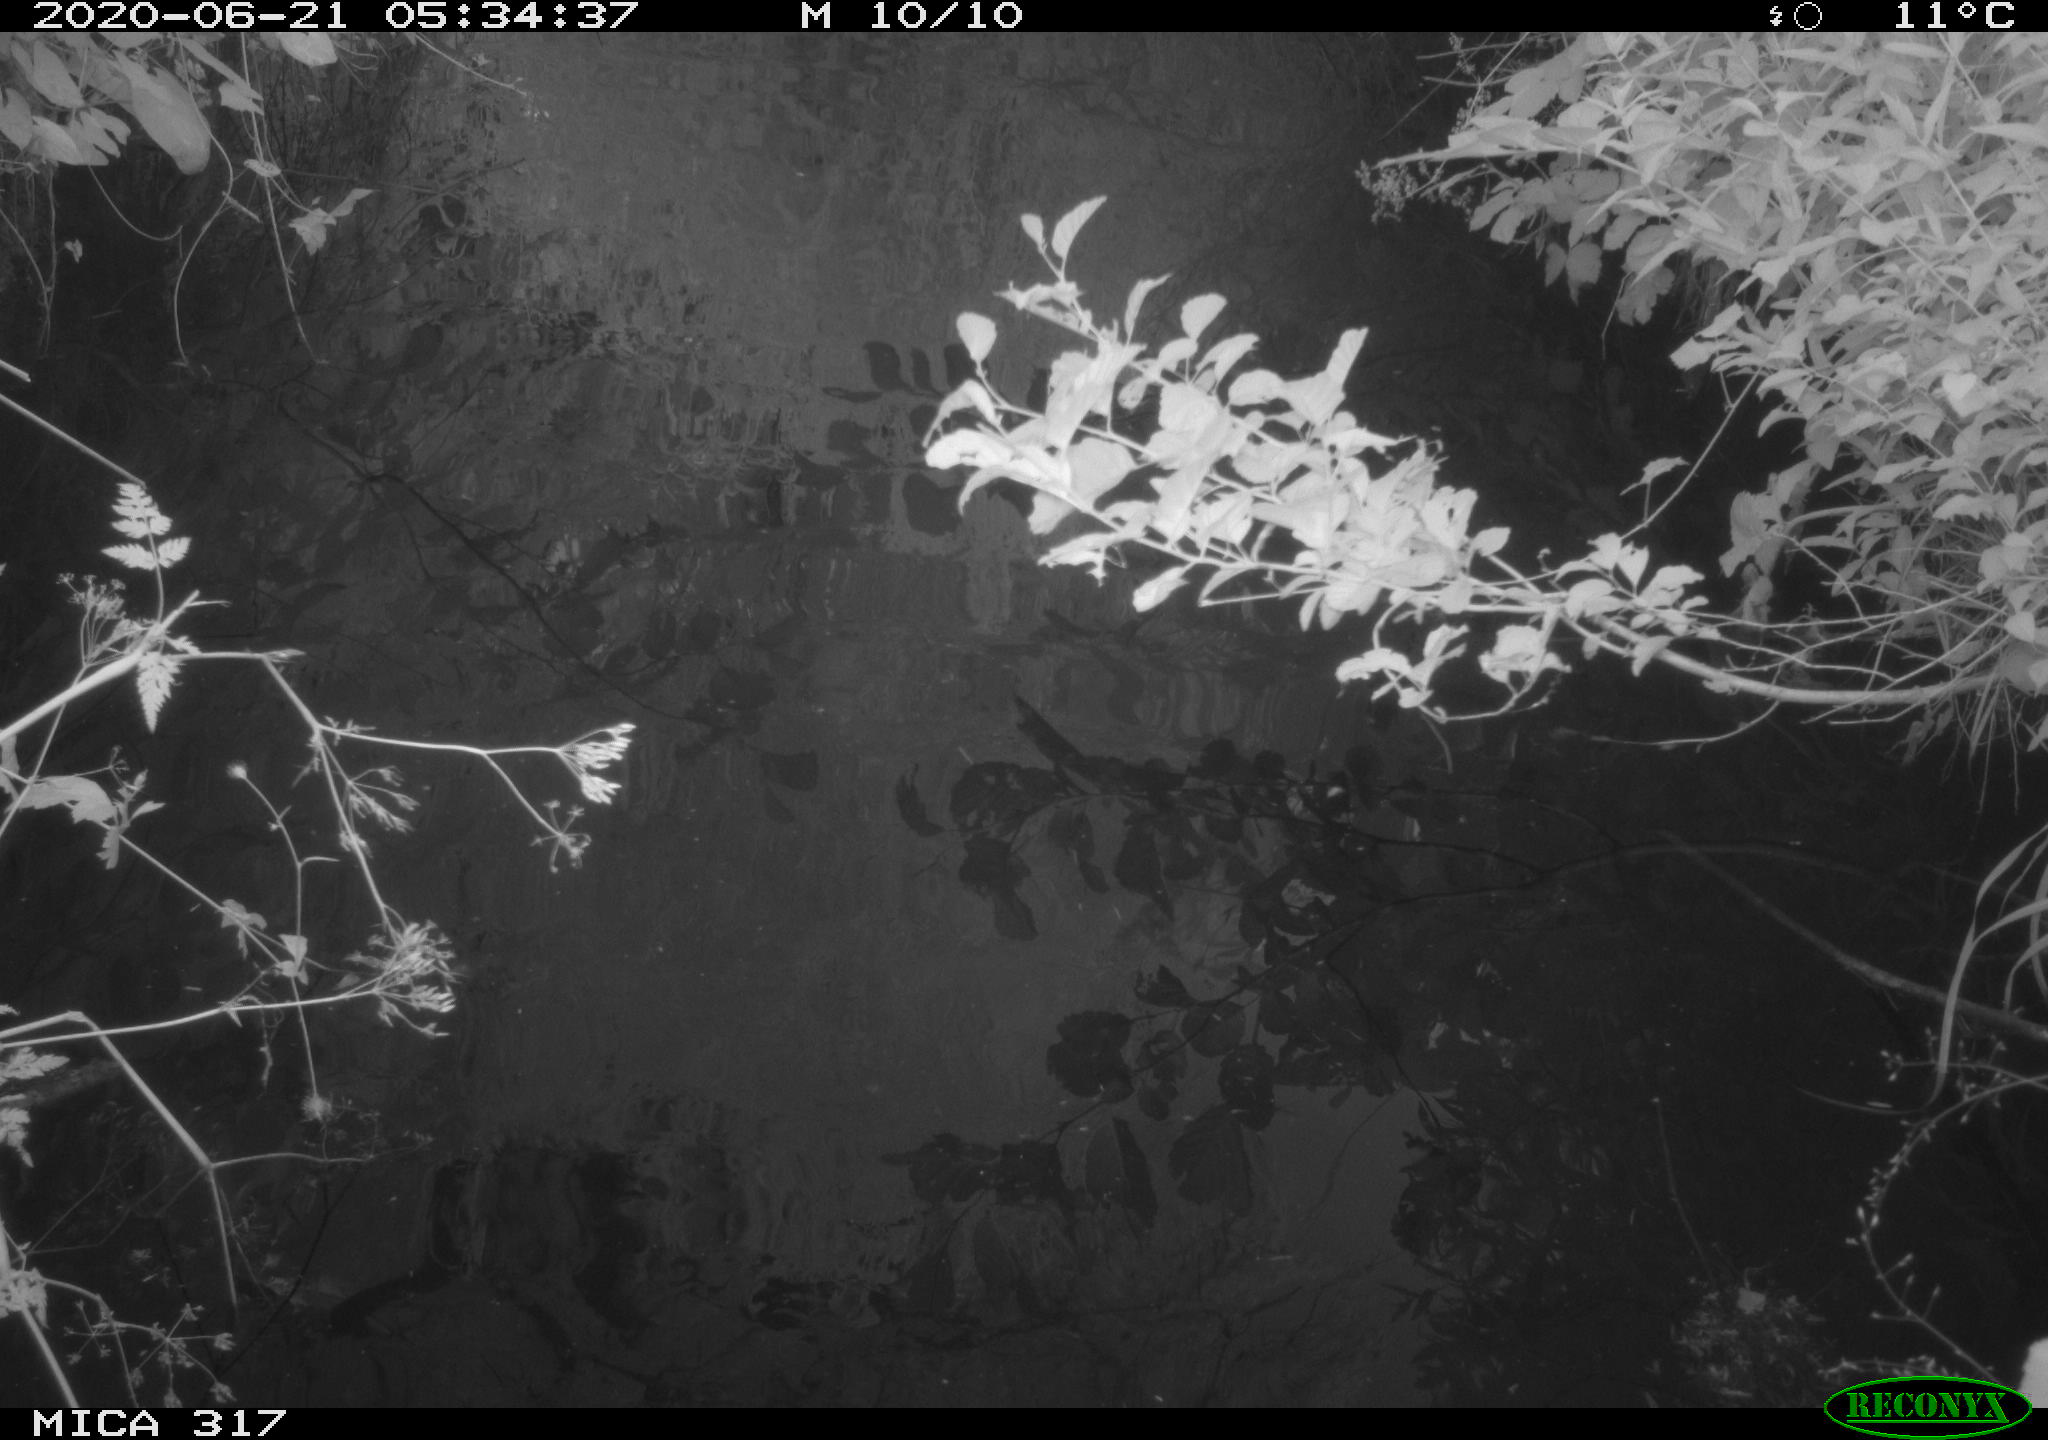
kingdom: Animalia
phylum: Chordata
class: Aves
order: Anseriformes
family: Anatidae
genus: Anas
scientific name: Anas platyrhynchos
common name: Mallard
